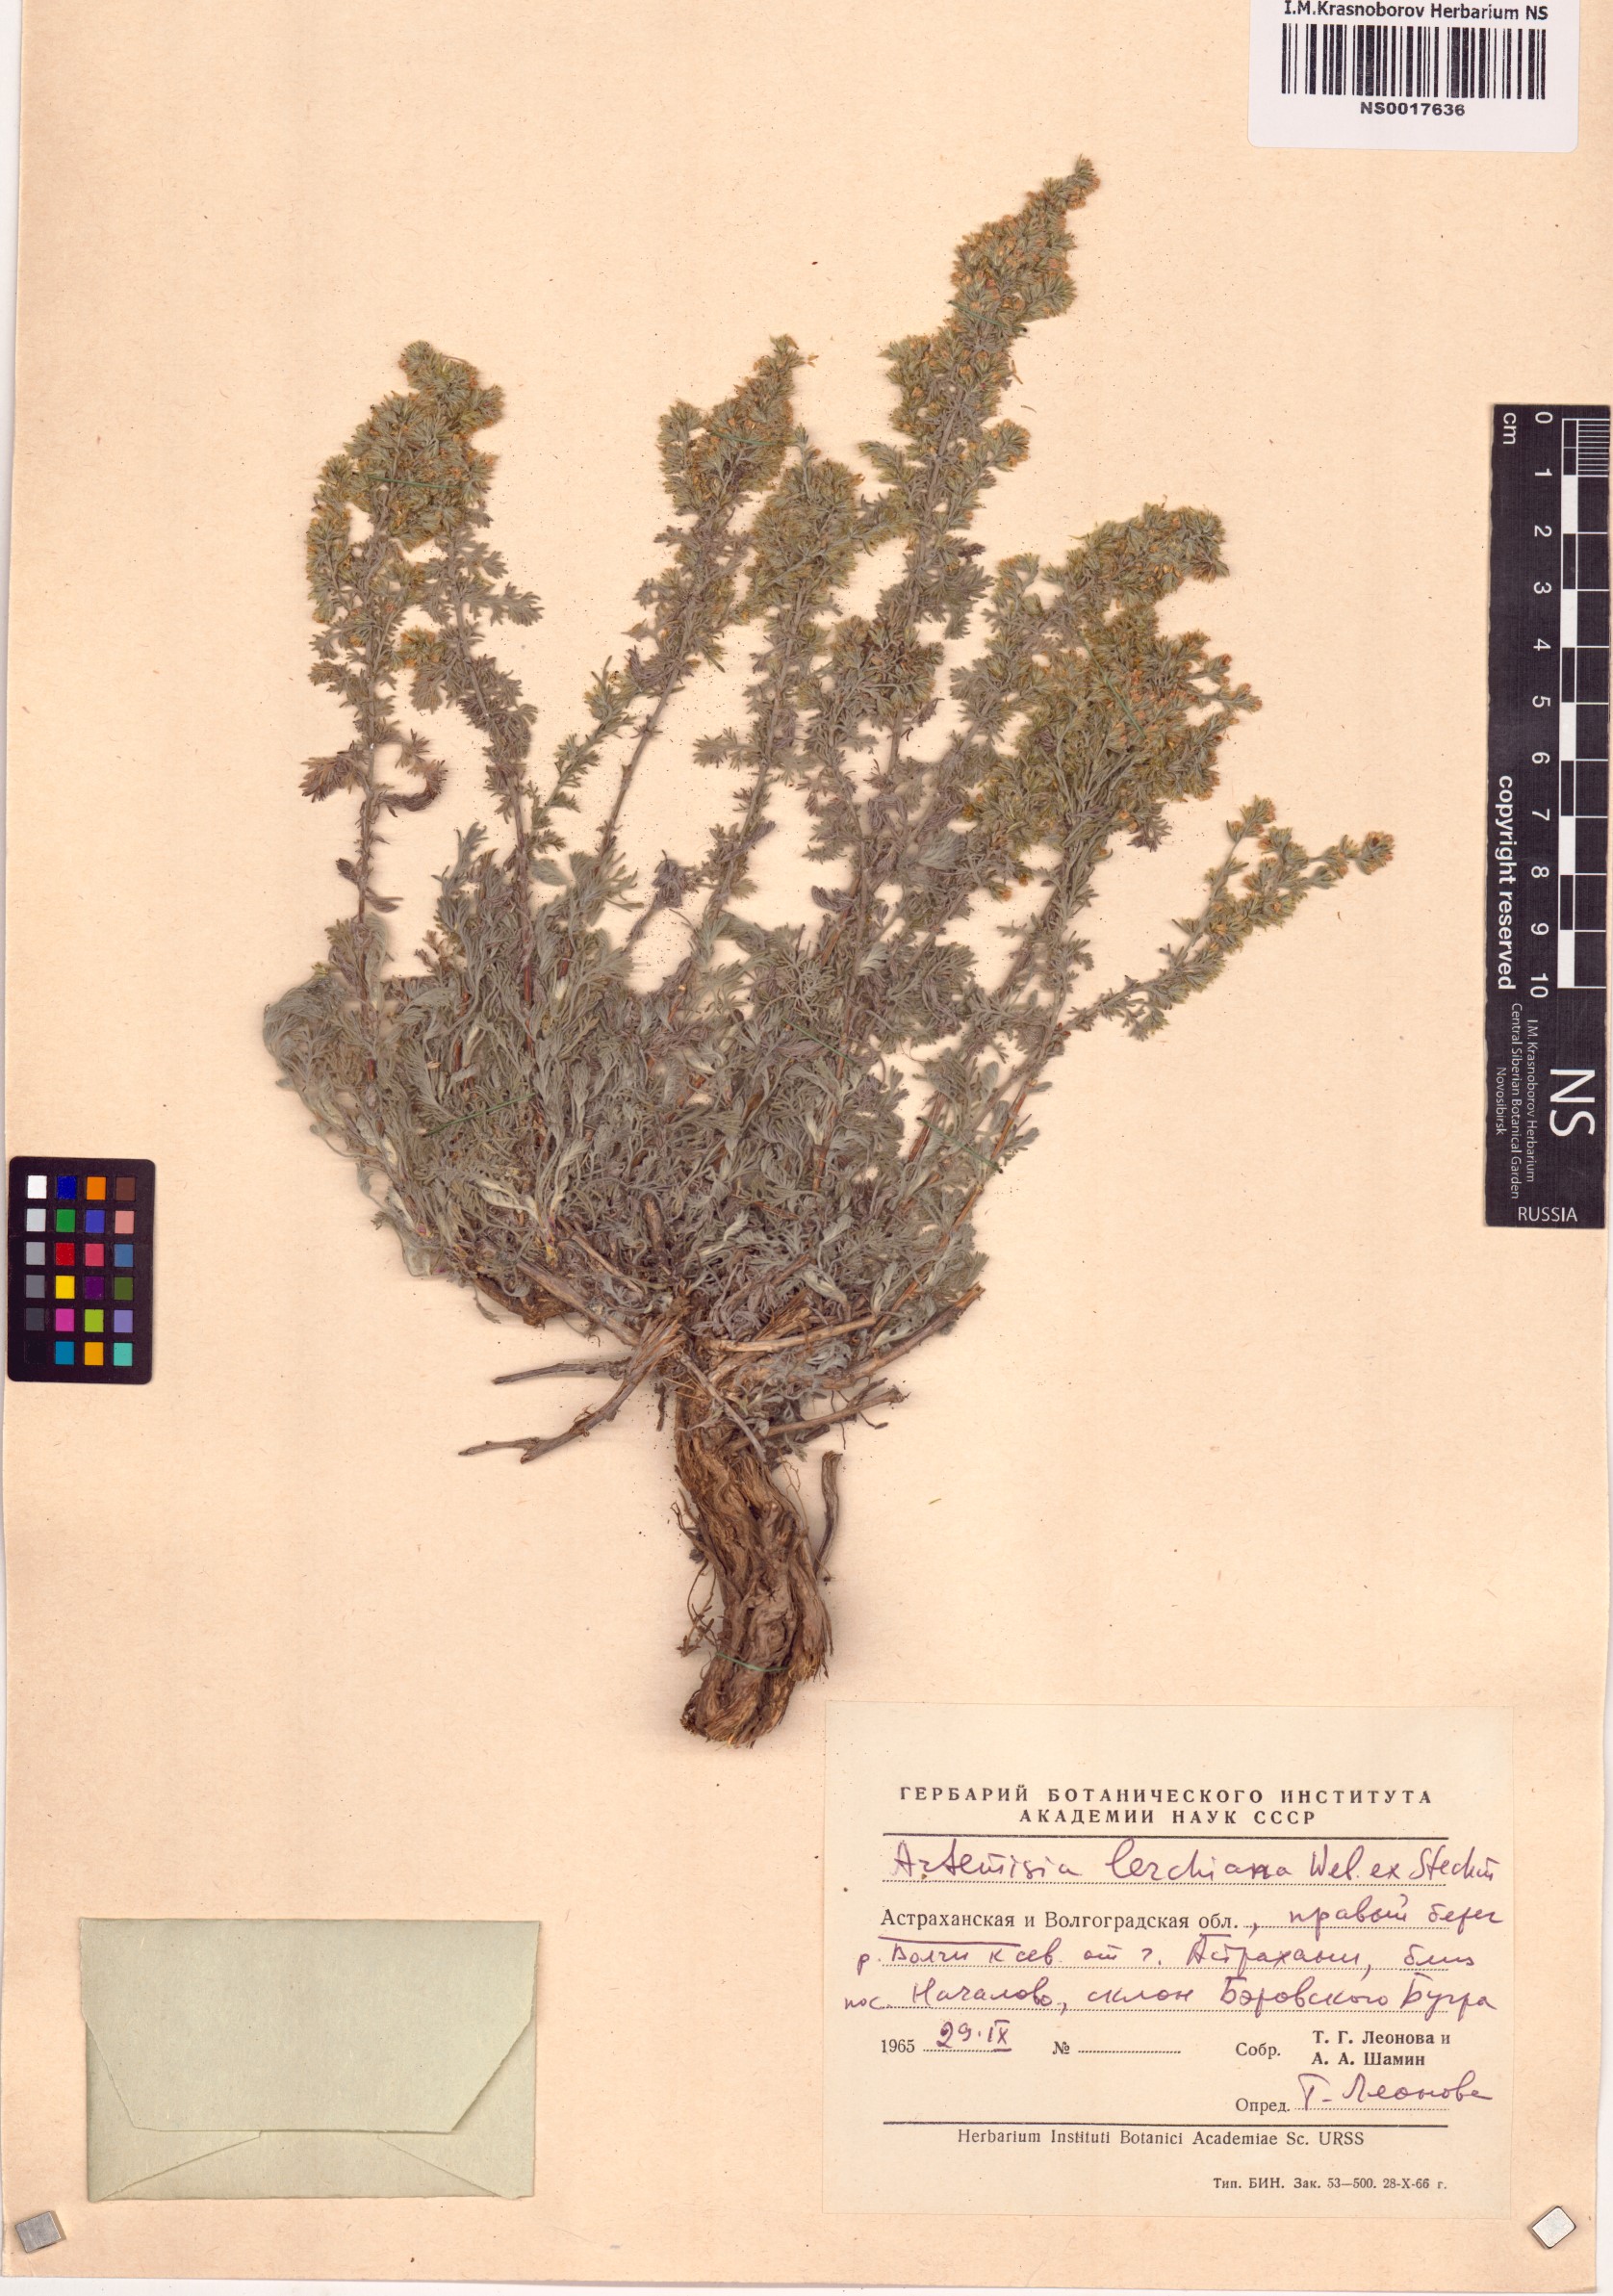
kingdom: Plantae
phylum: Tracheophyta
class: Magnoliopsida
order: Asterales
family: Asteraceae
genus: Artemisia
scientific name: Artemisia lercheana
